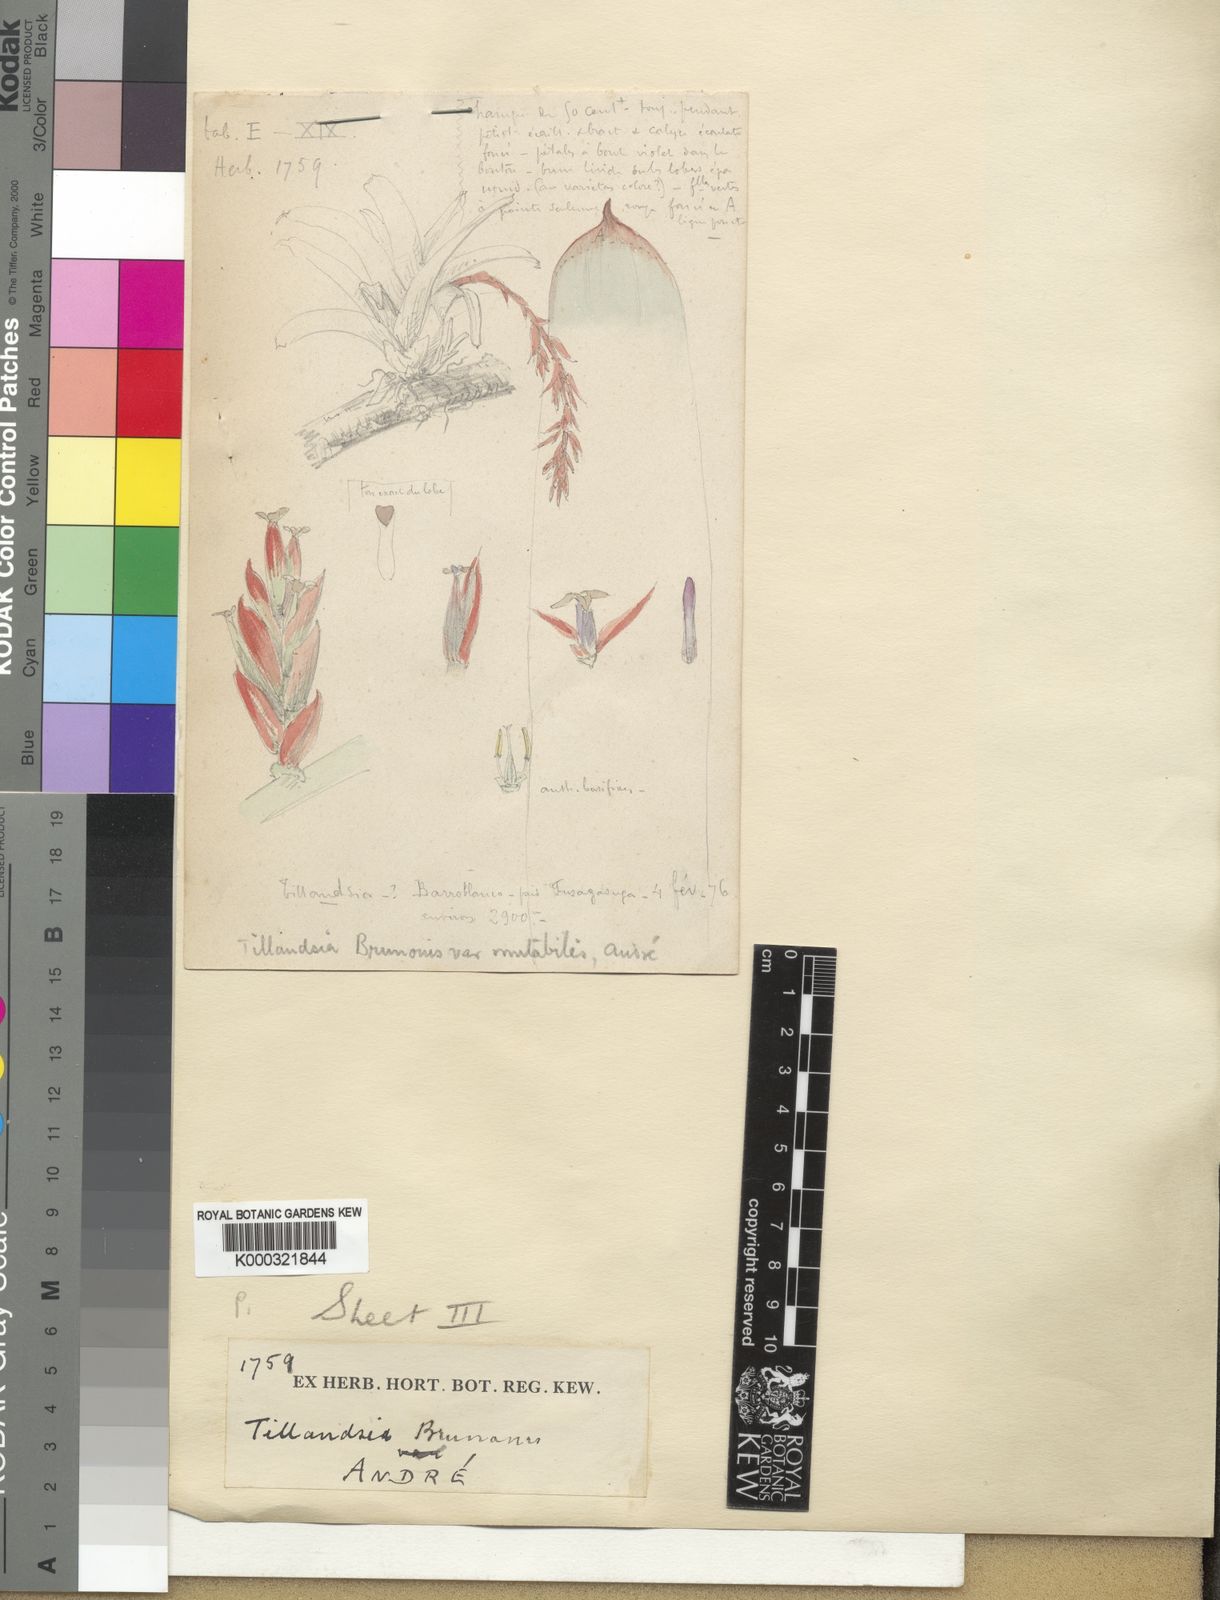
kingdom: Plantae
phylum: Tracheophyta
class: Liliopsida
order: Poales
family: Bromeliaceae
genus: Tillandsia
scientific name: Tillandsia
